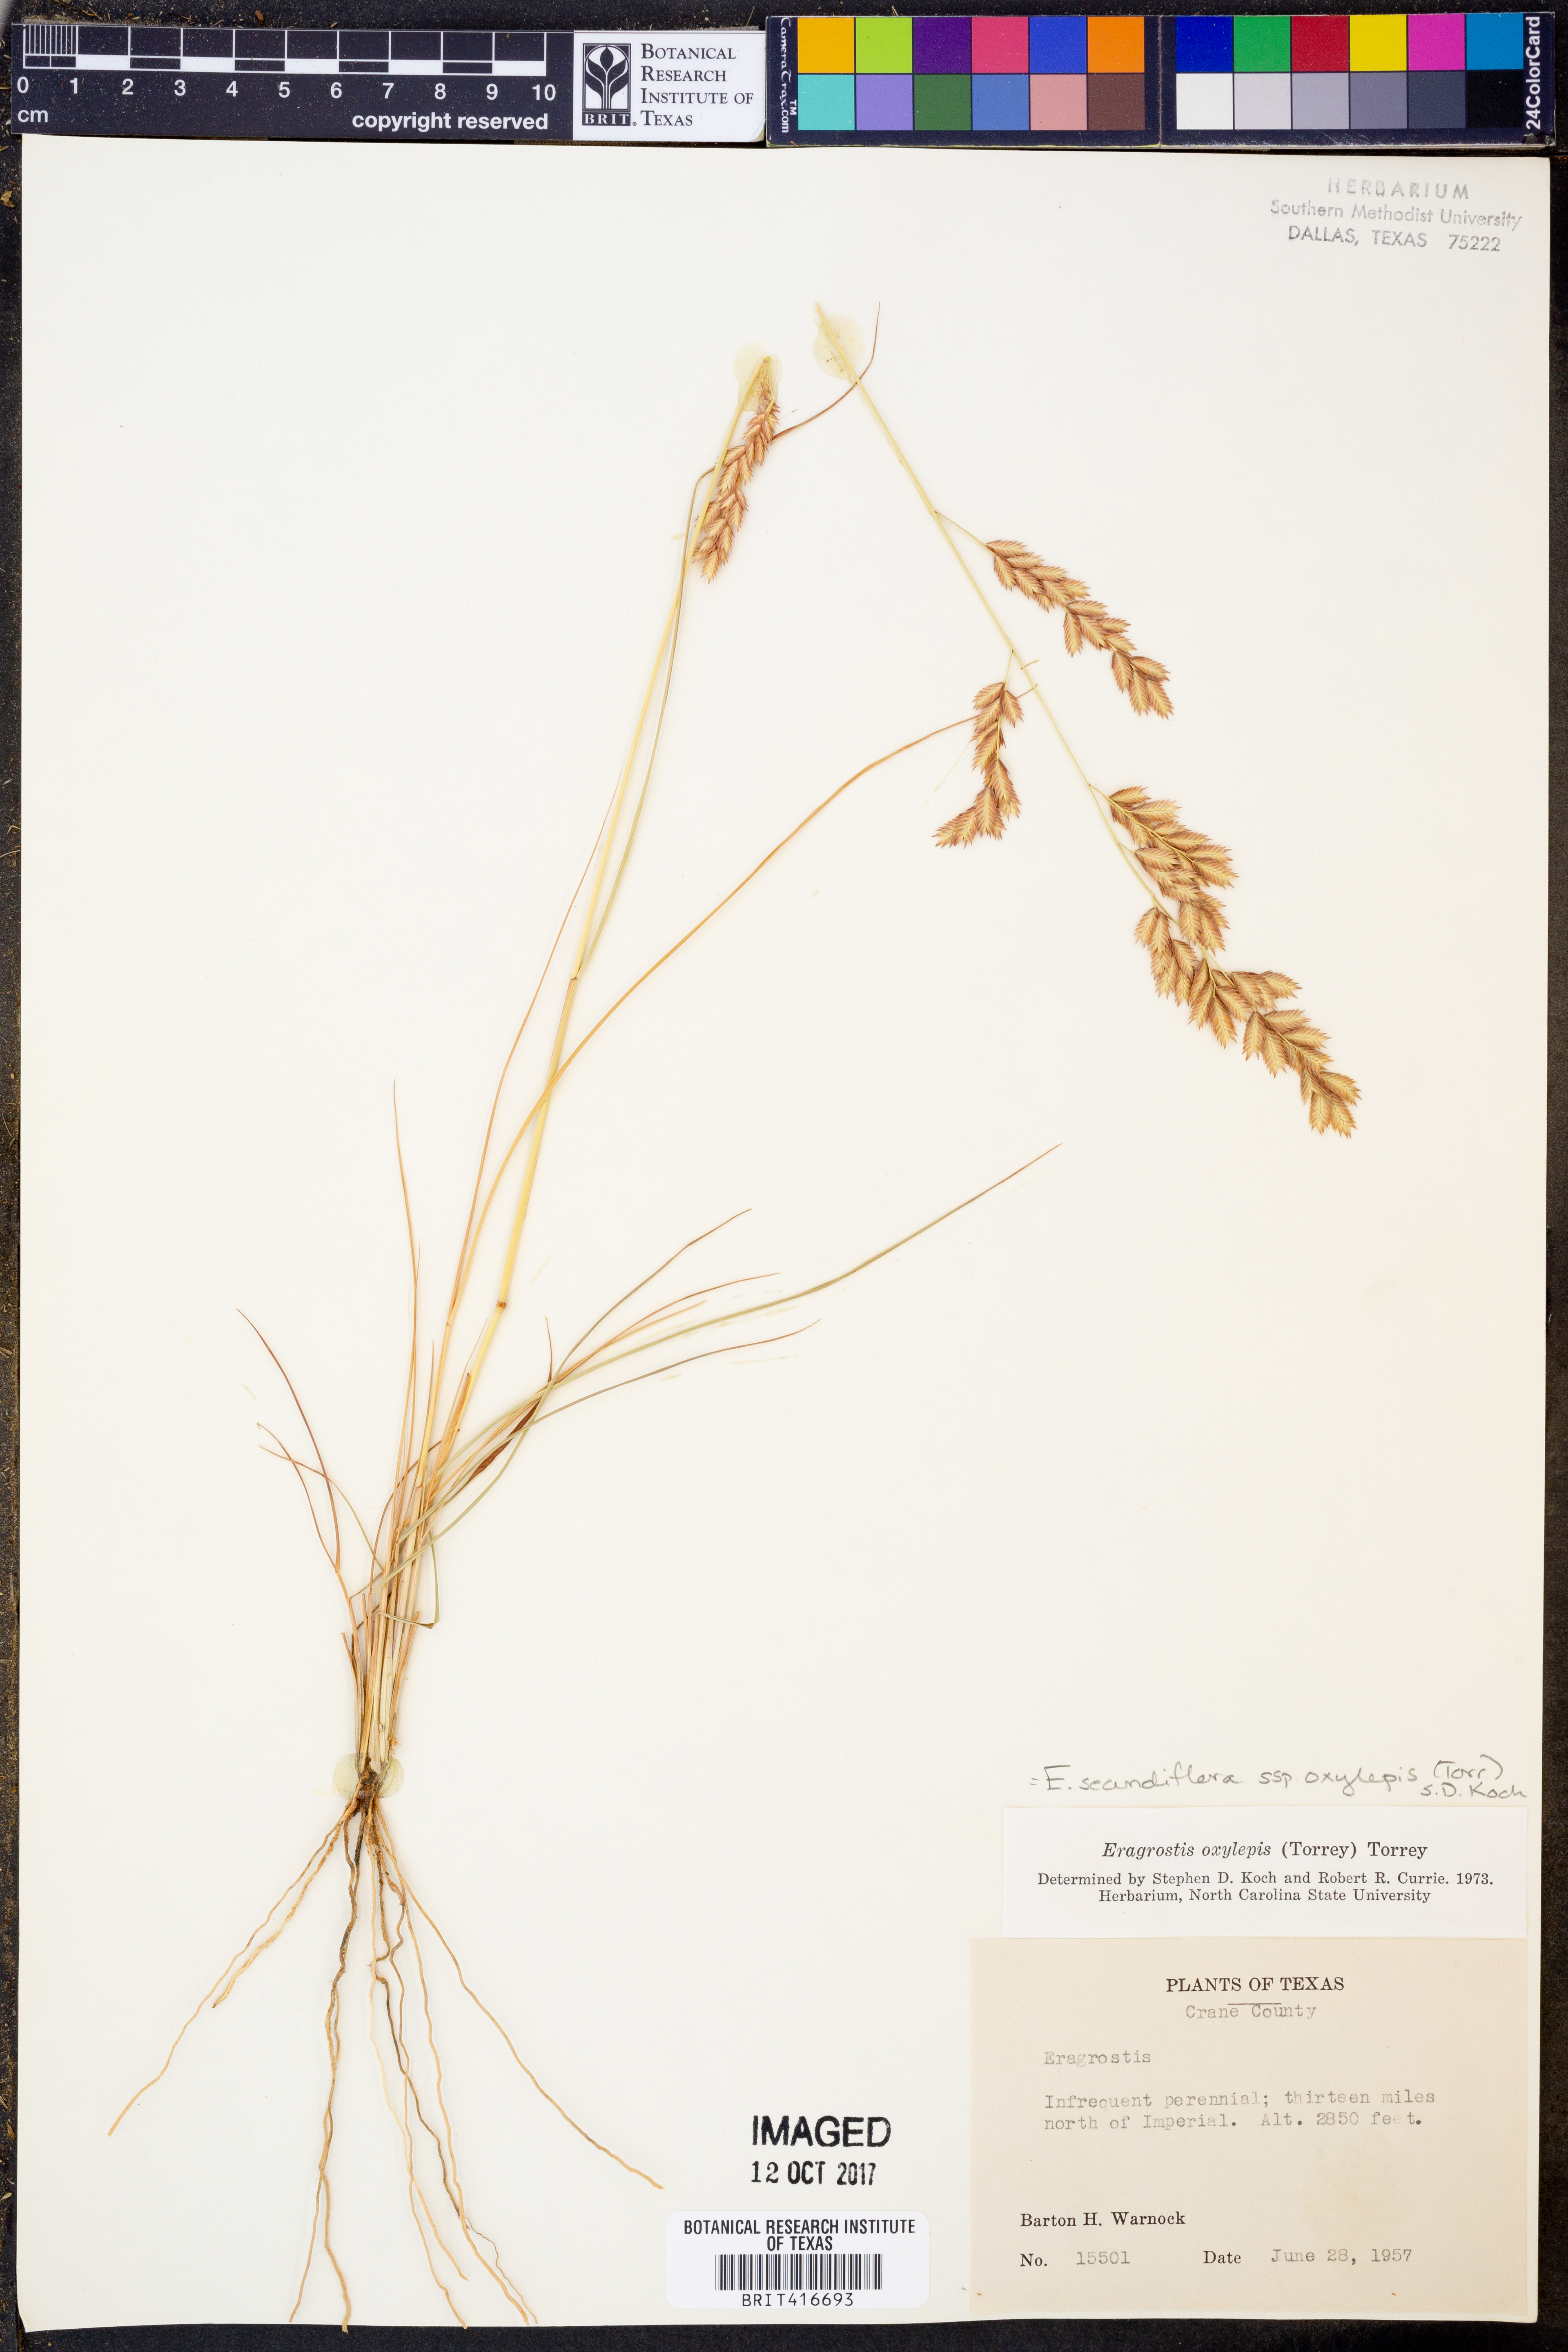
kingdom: Plantae
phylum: Tracheophyta
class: Liliopsida
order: Poales
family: Poaceae
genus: Eragrostis
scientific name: Eragrostis secundiflora
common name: Red love grass
